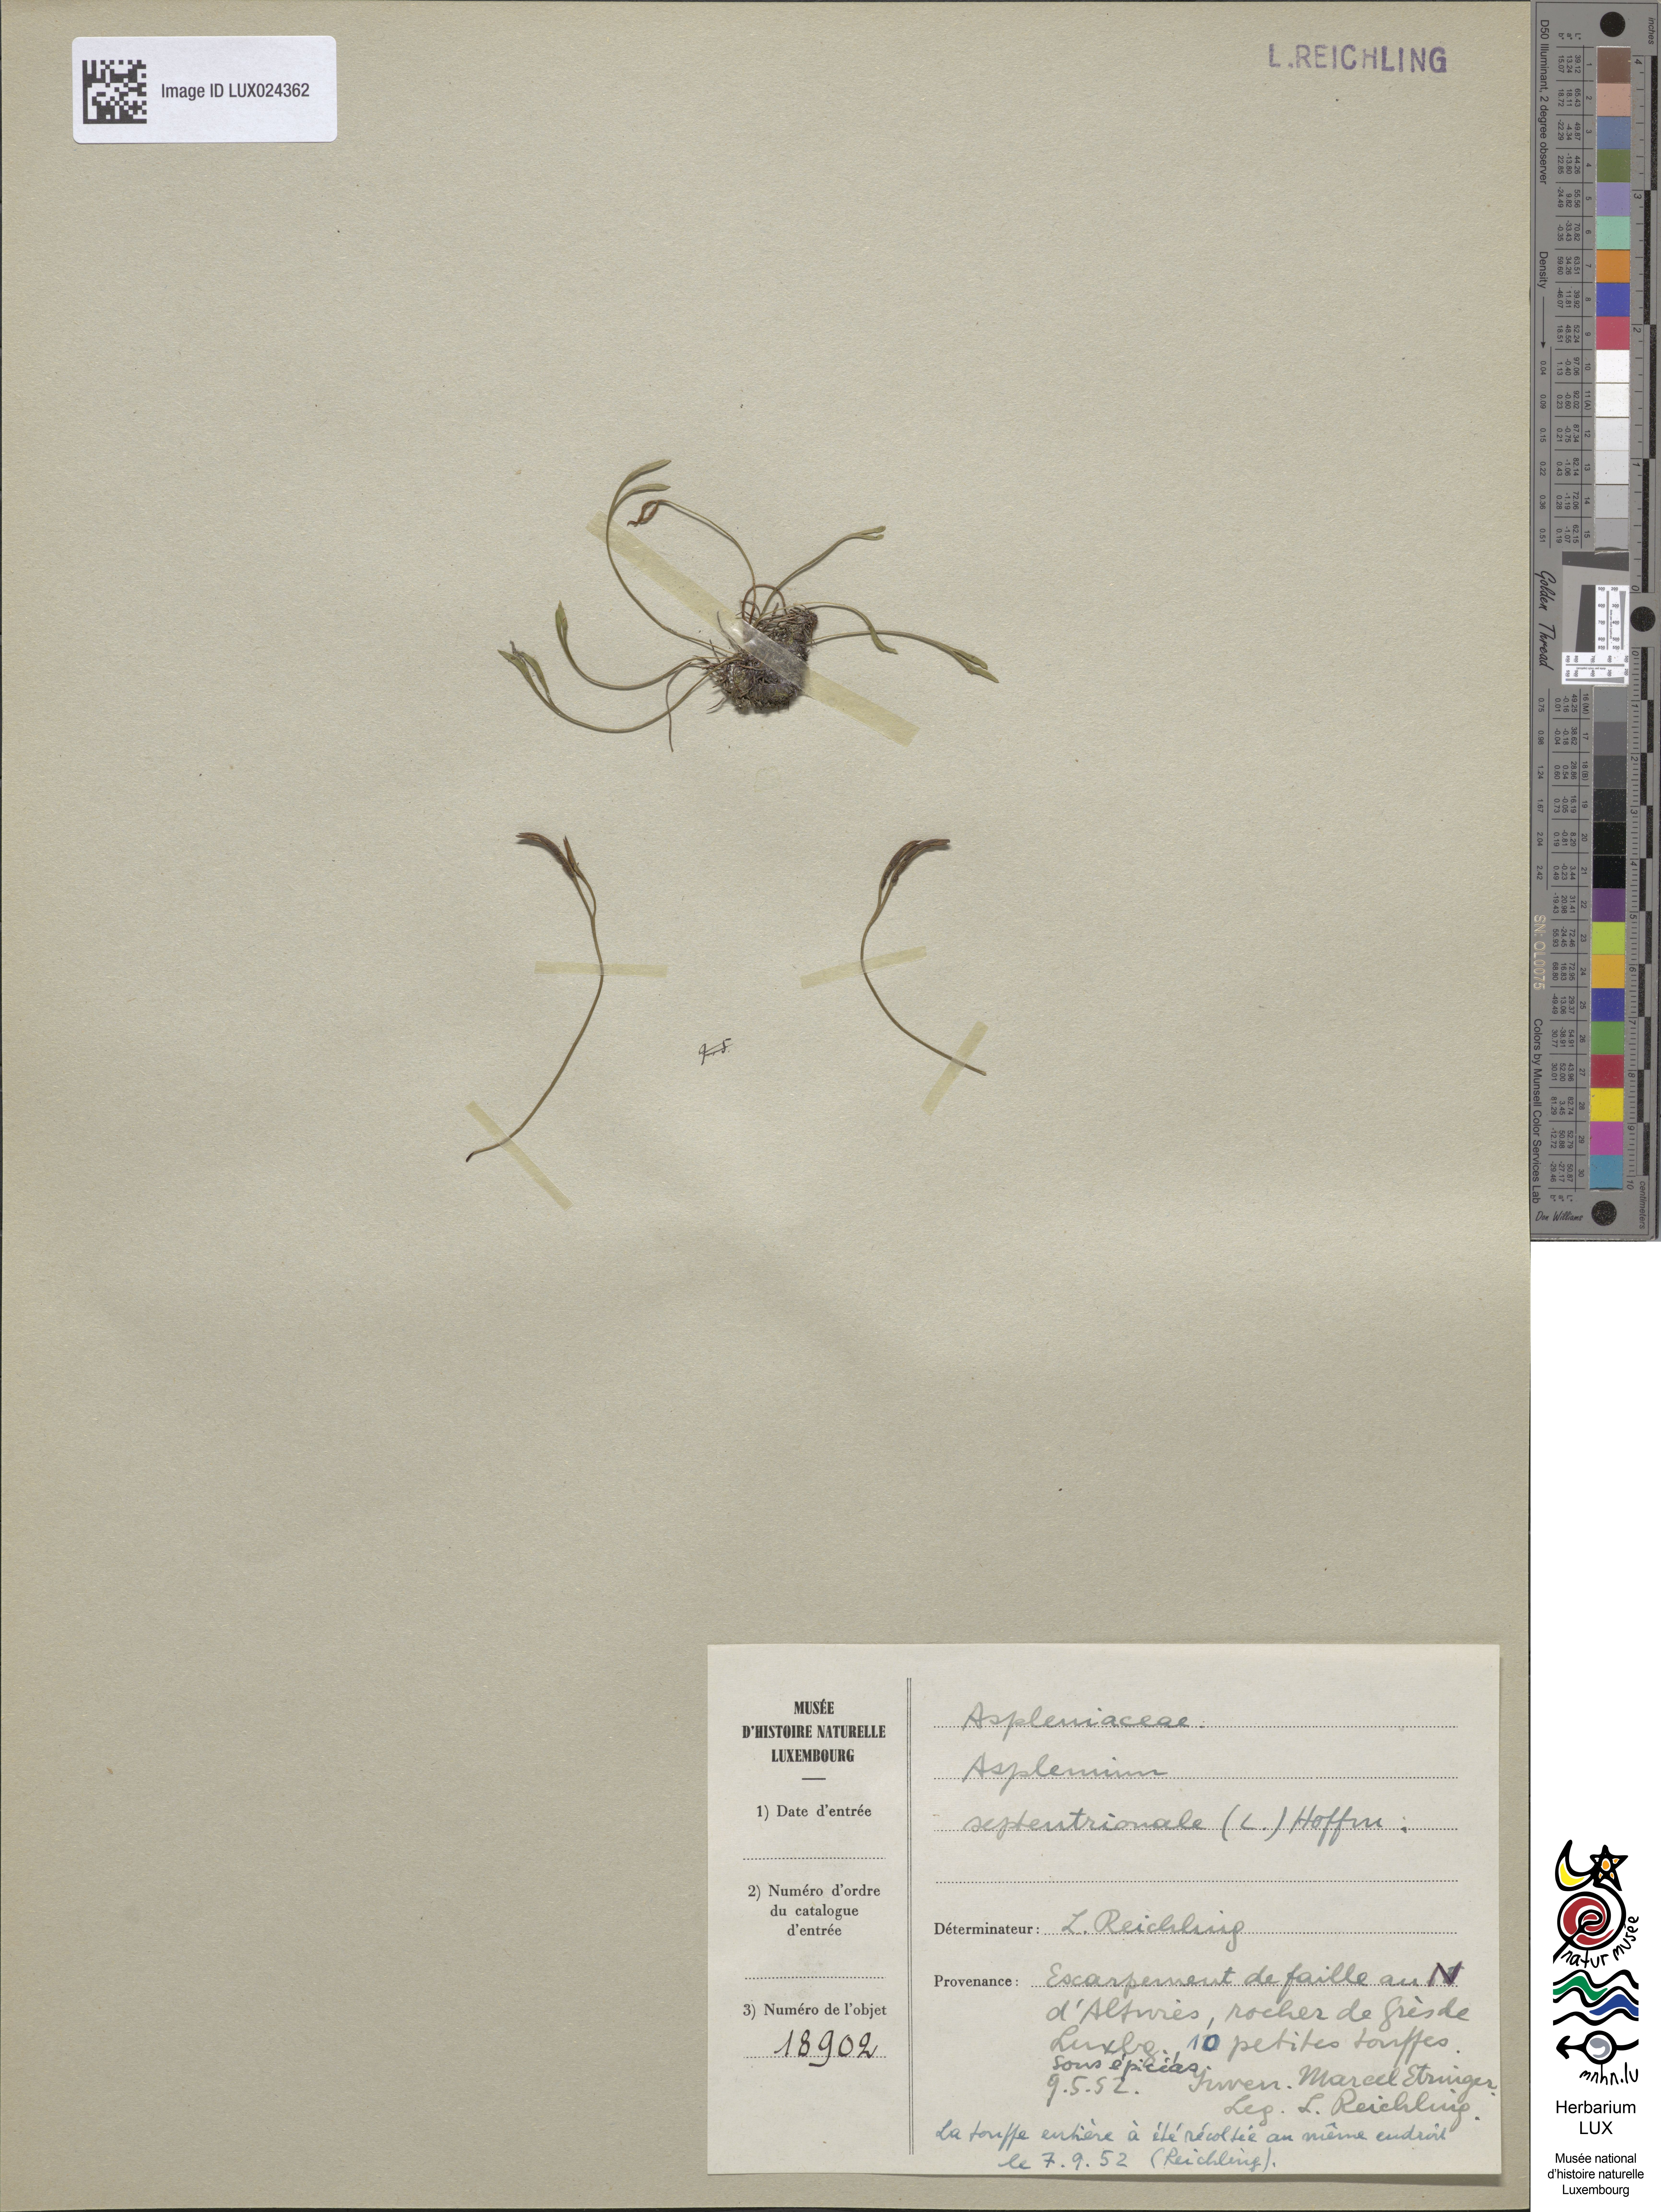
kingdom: Plantae
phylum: Tracheophyta
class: Polypodiopsida
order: Polypodiales
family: Aspleniaceae
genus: Asplenium
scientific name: Asplenium septentrionale
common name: Forked spleenwort
